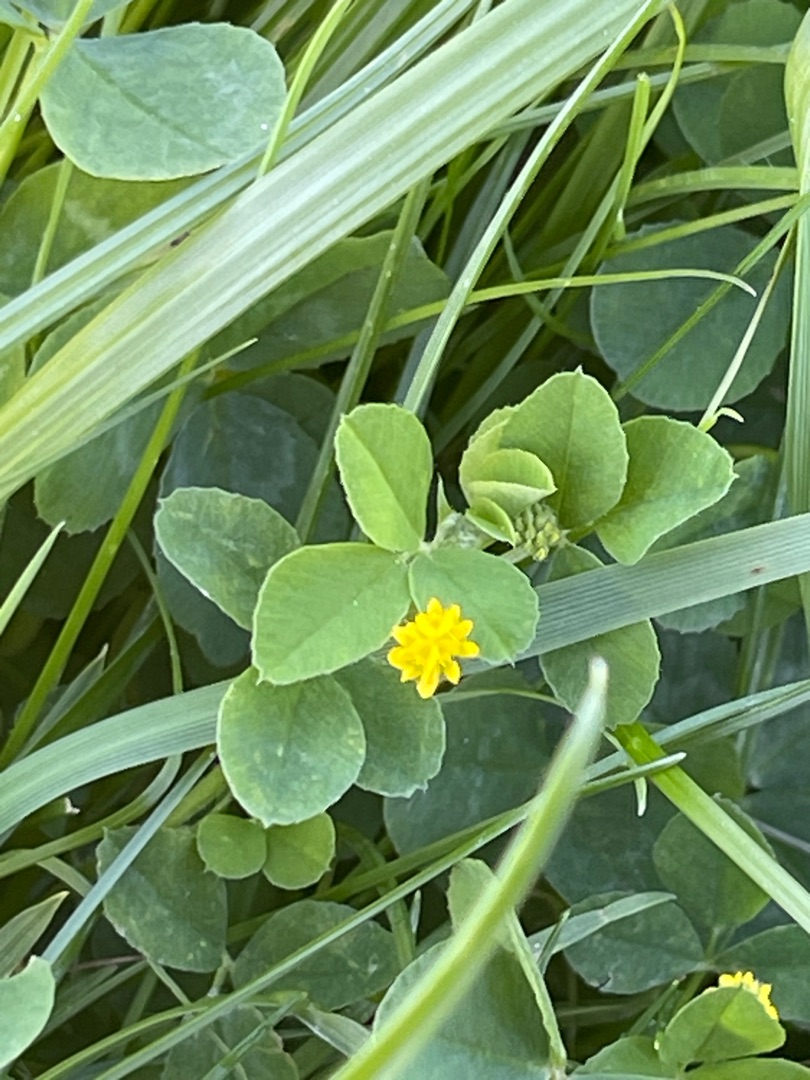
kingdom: Plantae
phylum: Tracheophyta
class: Magnoliopsida
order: Fabales
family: Fabaceae
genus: Medicago
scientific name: Medicago lupulina
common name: Humle-sneglebælg
